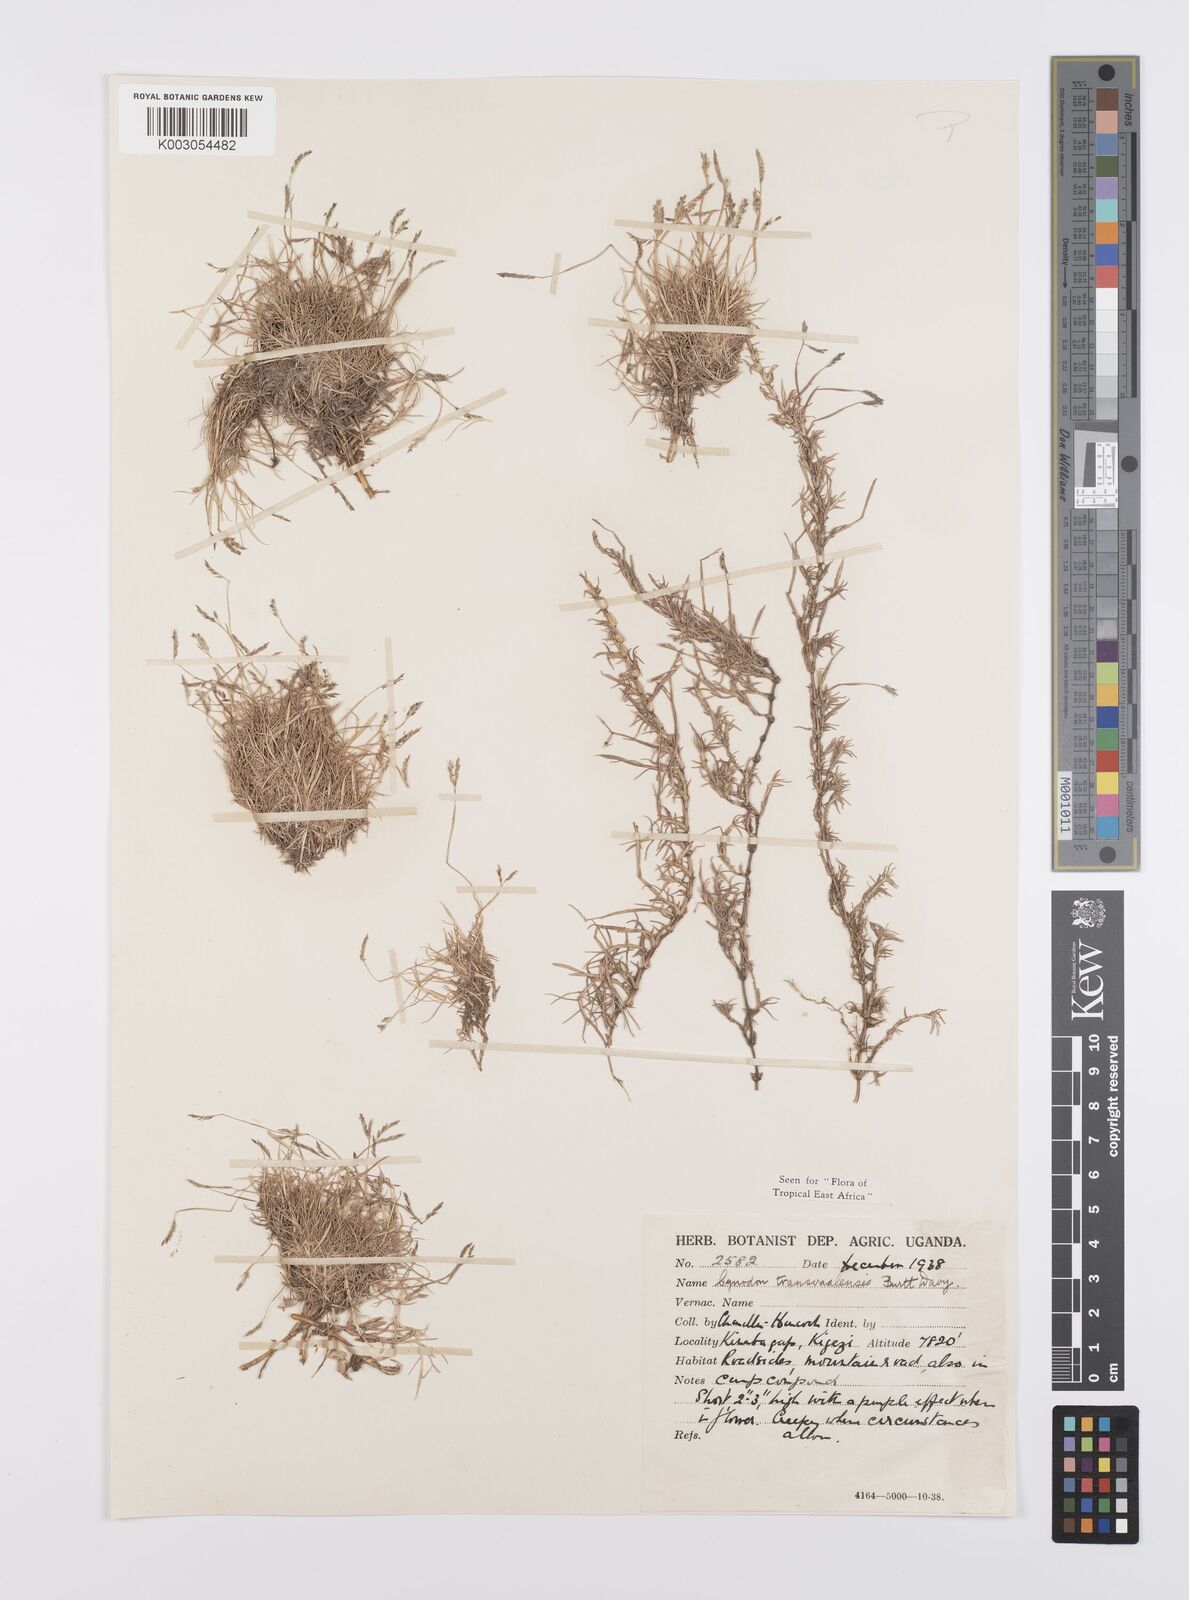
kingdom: Plantae
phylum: Tracheophyta
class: Liliopsida
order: Poales
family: Poaceae
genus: Cynodon
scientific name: Cynodon transvaalensis
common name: African bermuda grass
